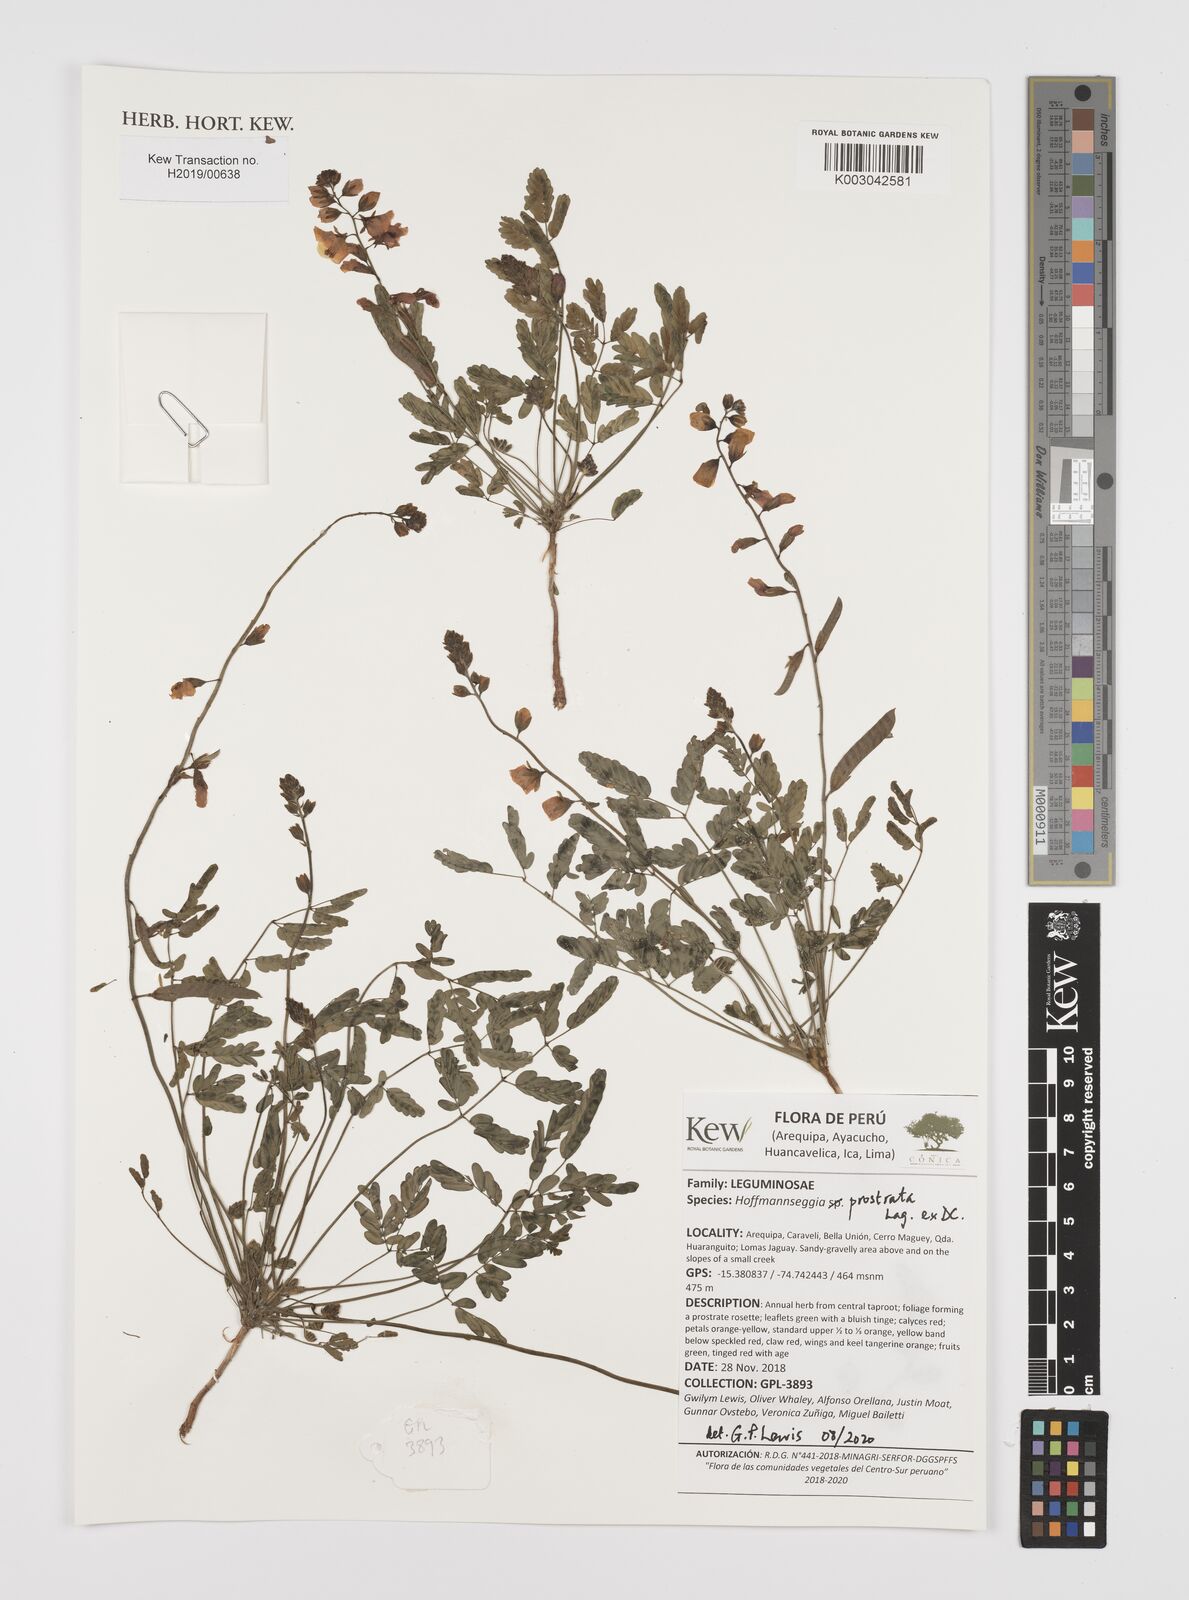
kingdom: Plantae
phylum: Tracheophyta
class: Magnoliopsida
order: Fabales
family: Fabaceae
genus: Hoffmannseggia
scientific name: Hoffmannseggia prostrata
